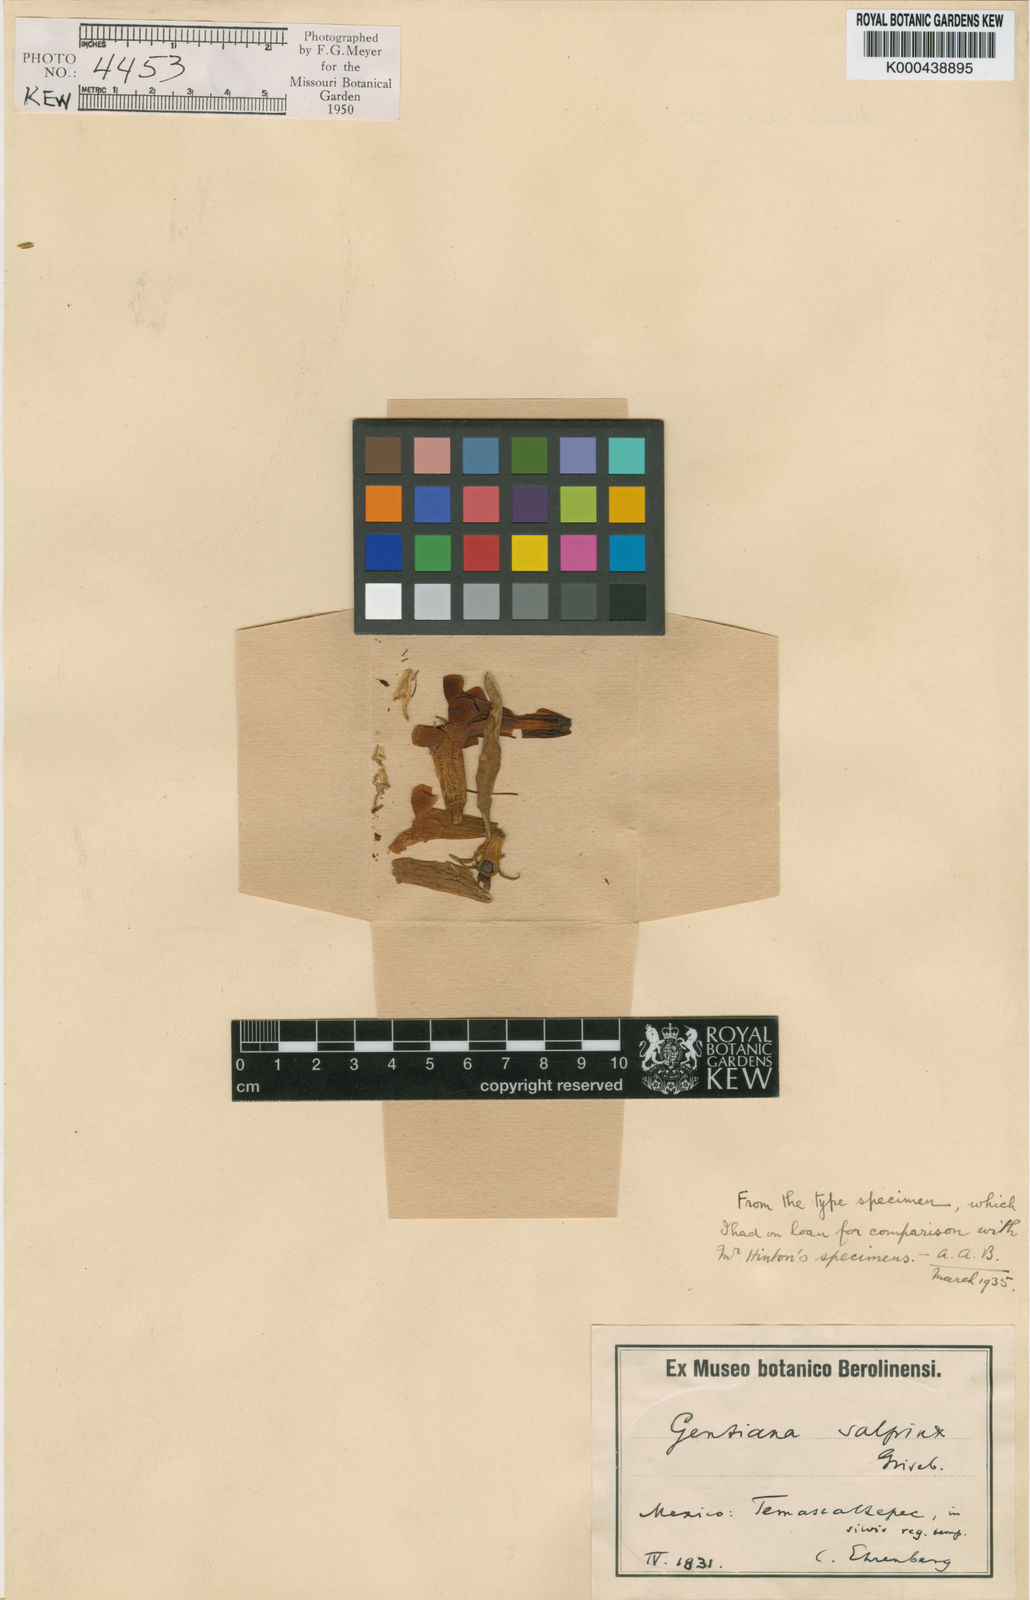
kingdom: Plantae
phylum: Tracheophyta
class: Magnoliopsida
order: Gentianales
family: Gentianaceae
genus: Gentiana
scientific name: Gentiana caliculata
